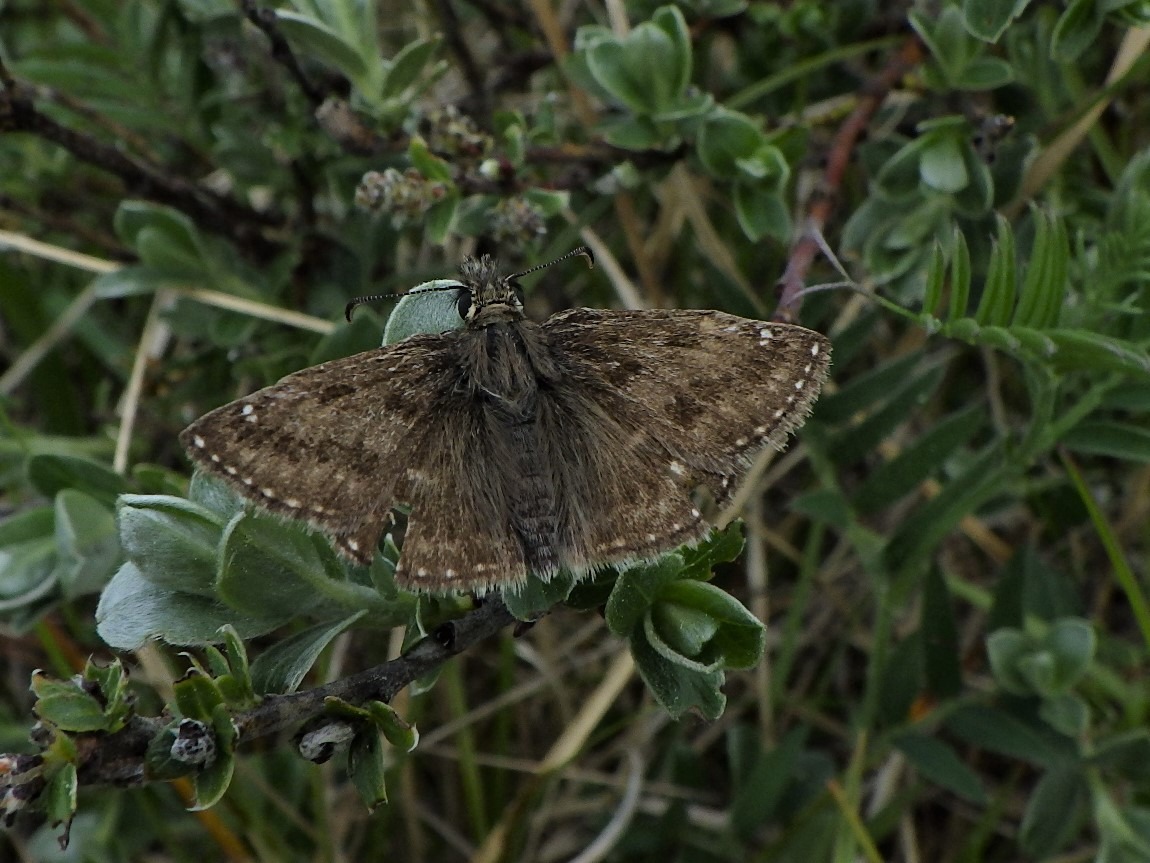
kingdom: Animalia
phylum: Arthropoda
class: Insecta
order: Lepidoptera
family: Hesperiidae
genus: Erynnis
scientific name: Erynnis tages
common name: Gråbåndet bredpande
